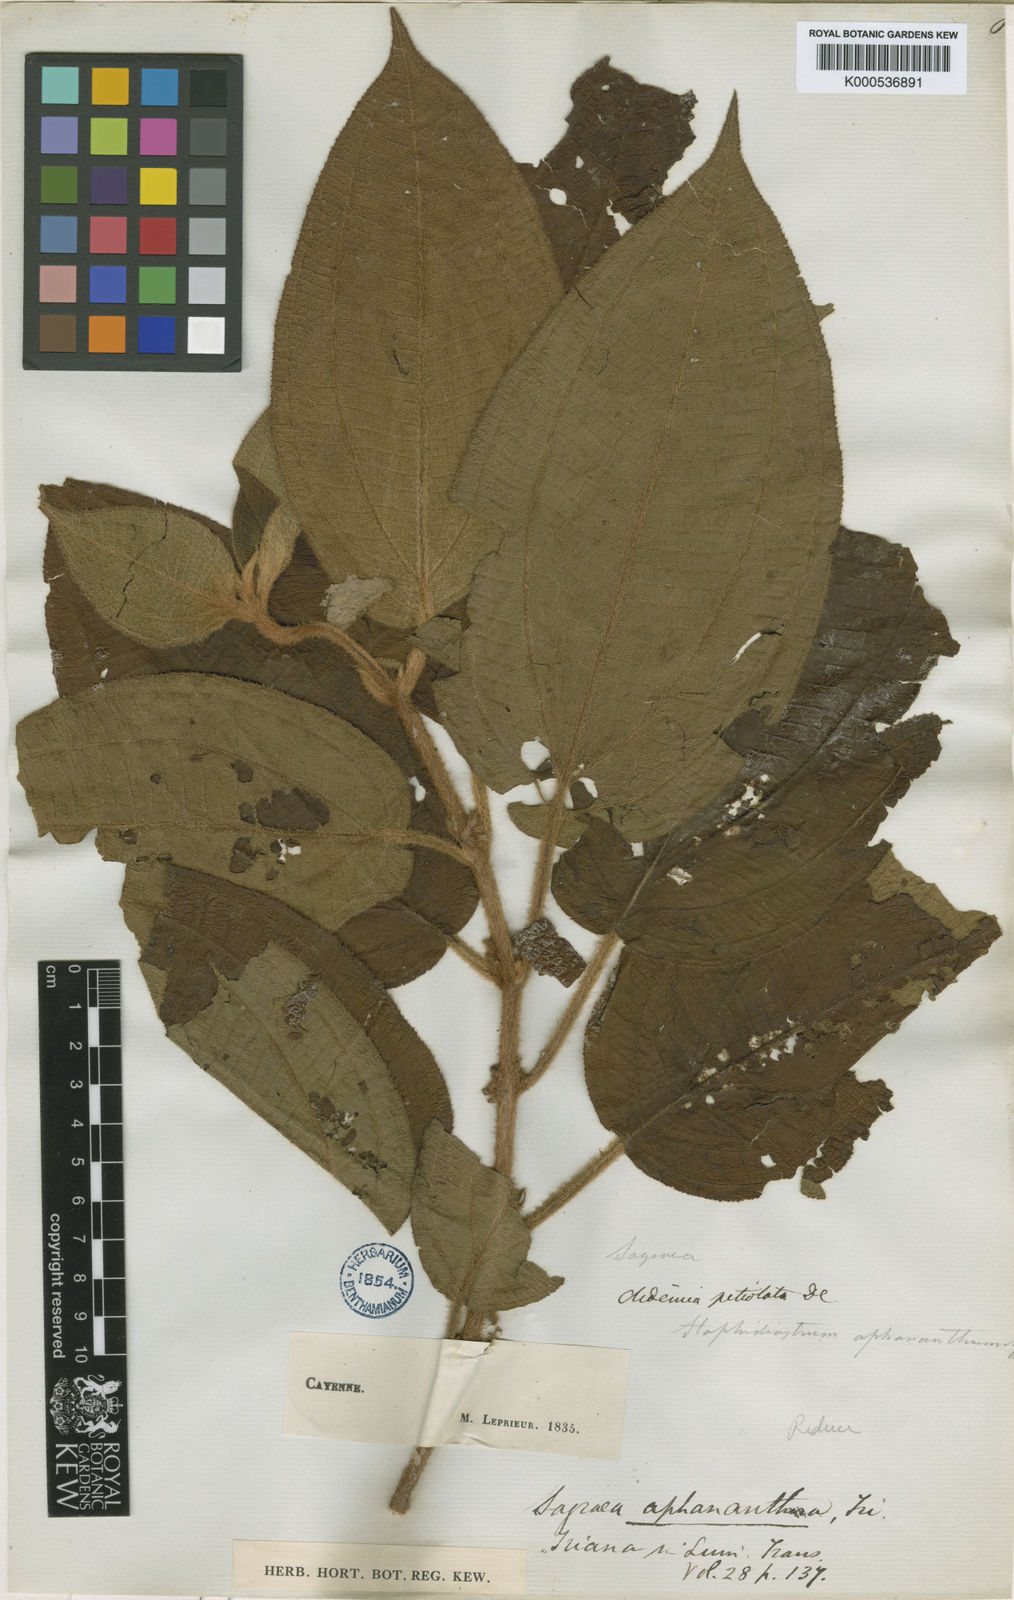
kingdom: Plantae
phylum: Tracheophyta
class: Magnoliopsida
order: Myrtales
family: Melastomataceae
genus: Miconia
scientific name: Miconia aphanantha
